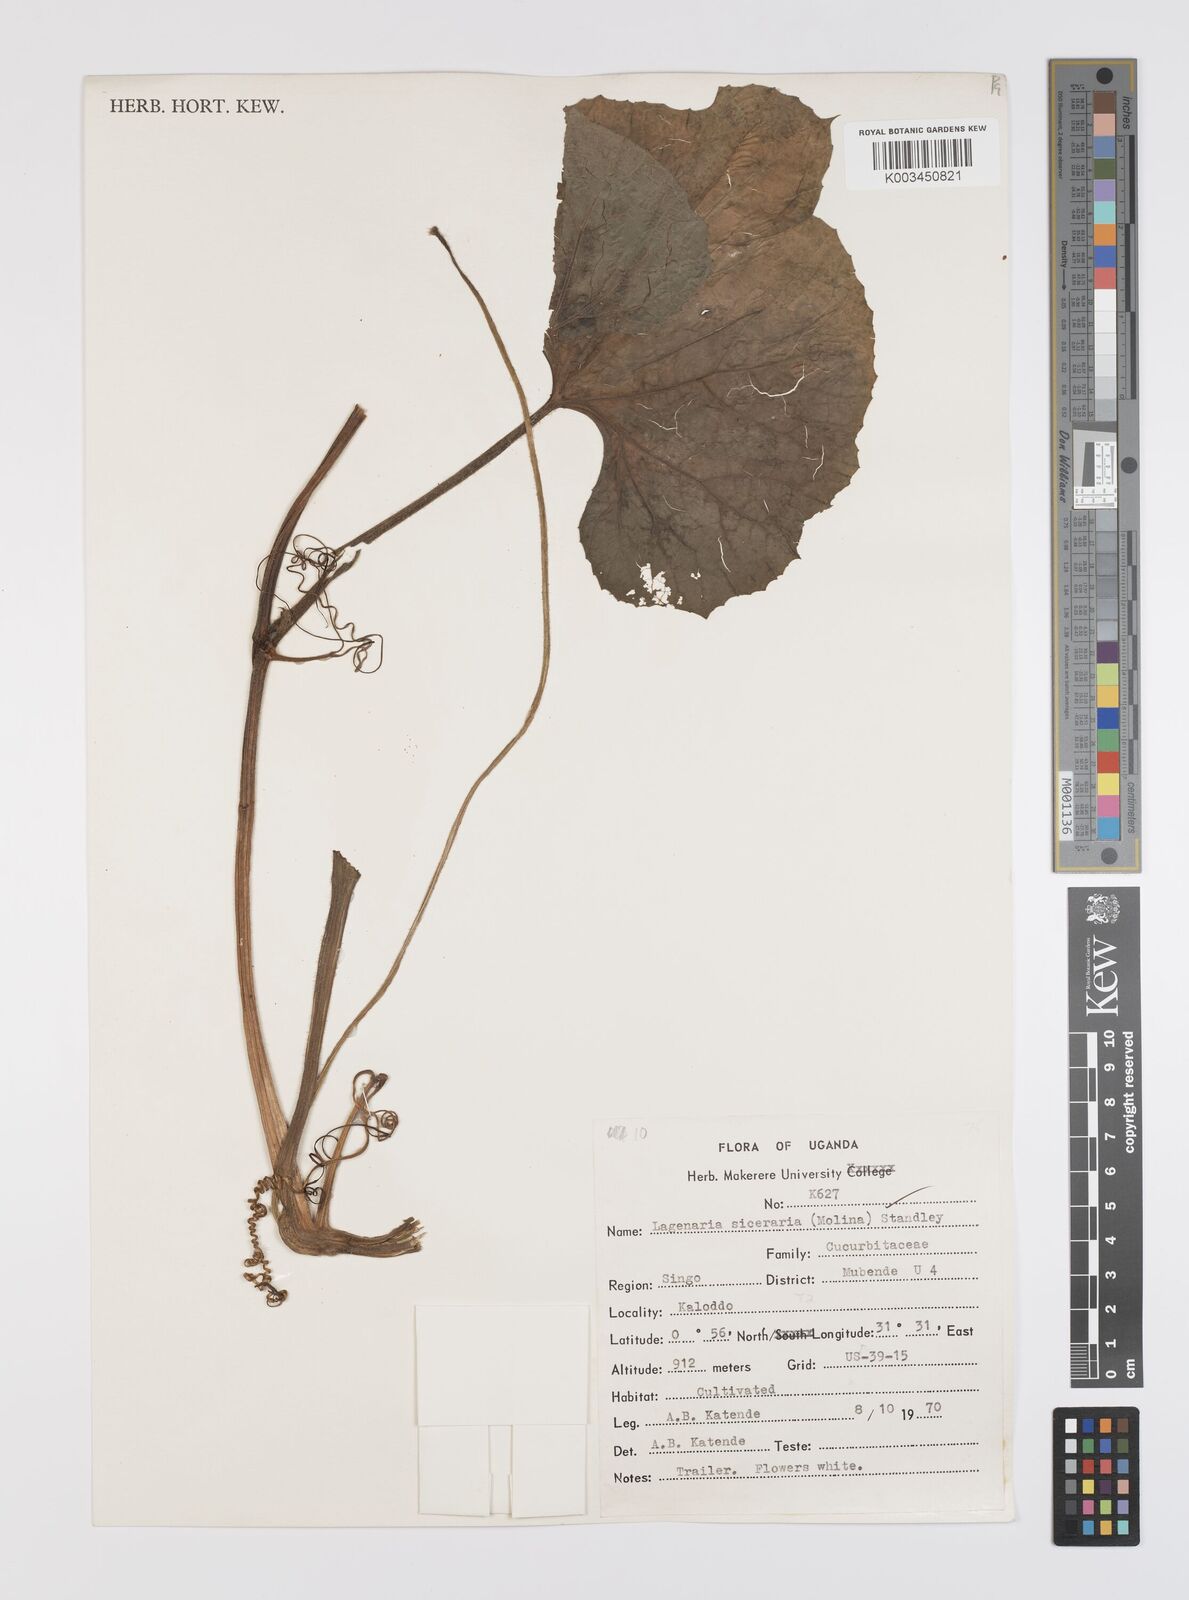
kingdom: Plantae
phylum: Tracheophyta
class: Magnoliopsida
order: Cucurbitales
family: Cucurbitaceae
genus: Lagenaria
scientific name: Lagenaria siceraria
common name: Bottle gourd
